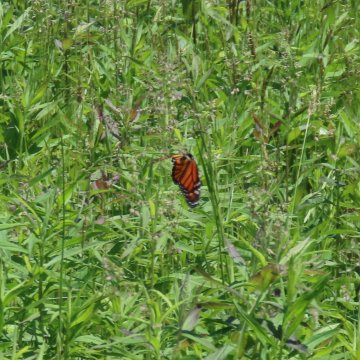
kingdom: Animalia
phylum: Arthropoda
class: Insecta
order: Lepidoptera
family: Nymphalidae
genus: Danaus
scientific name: Danaus plexippus
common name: Monarch
